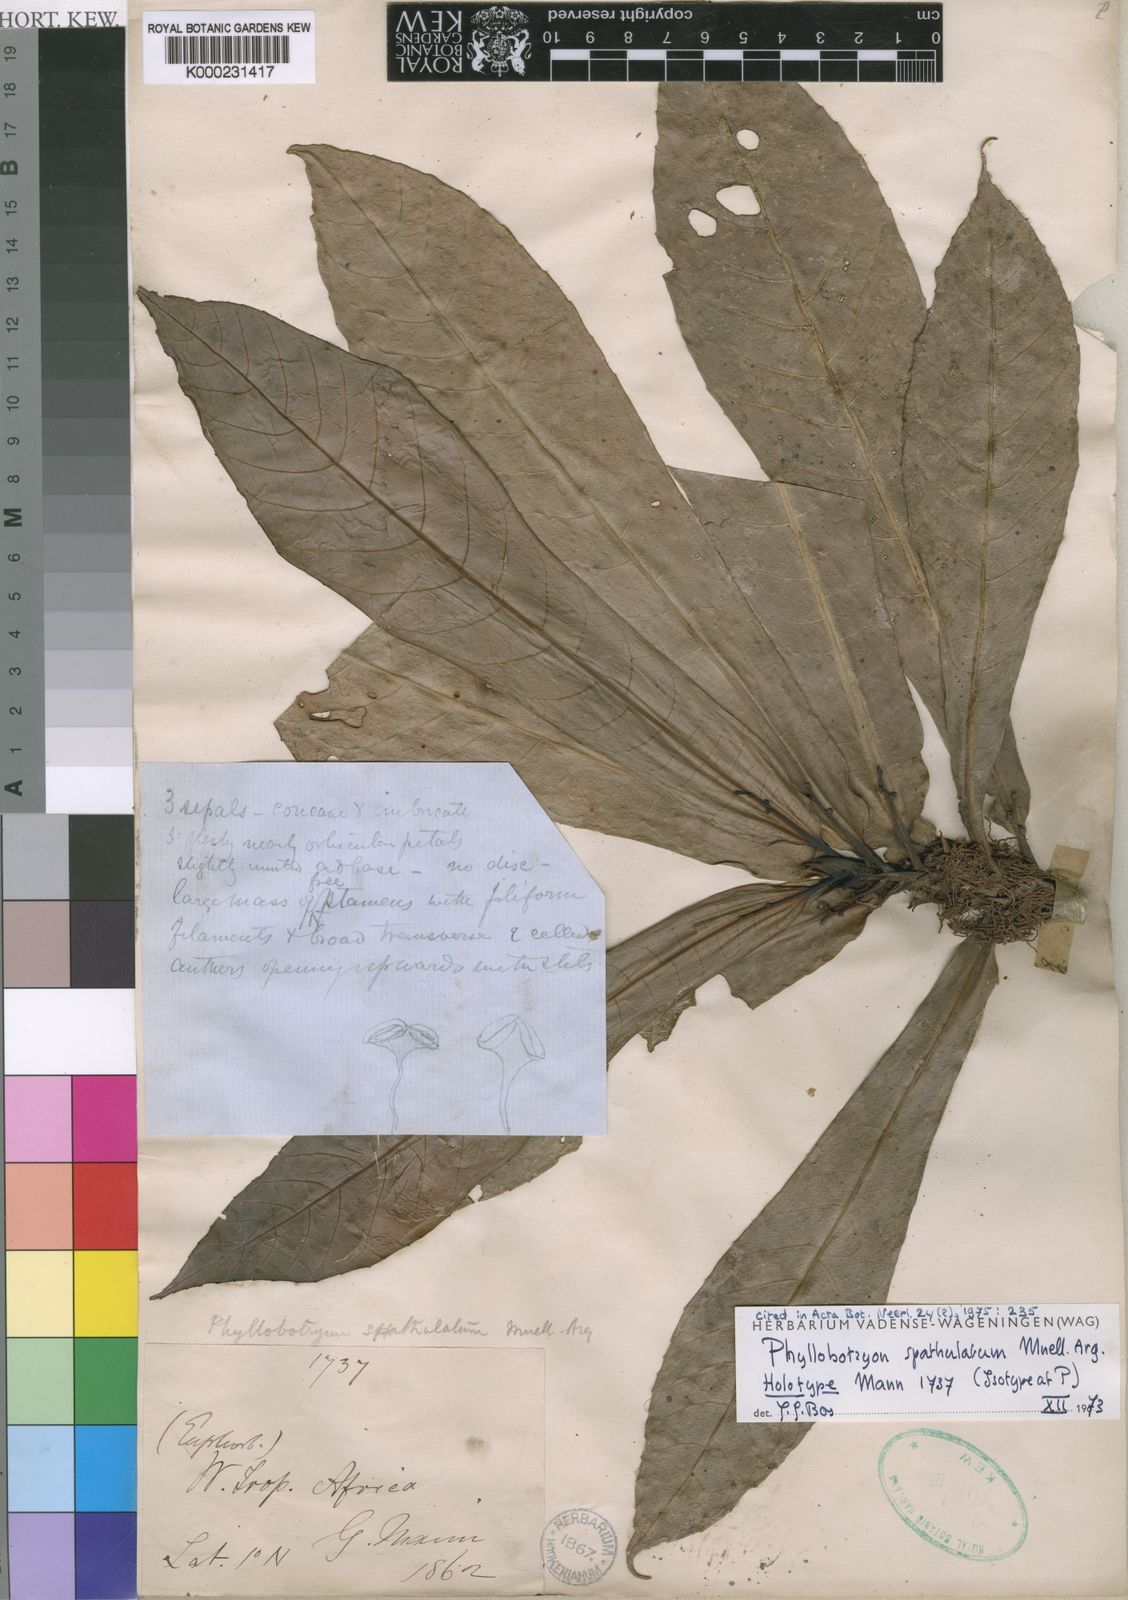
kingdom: Plantae
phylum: Tracheophyta
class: Magnoliopsida
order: Malpighiales
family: Salicaceae
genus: Phyllobotryon
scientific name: Phyllobotryon
